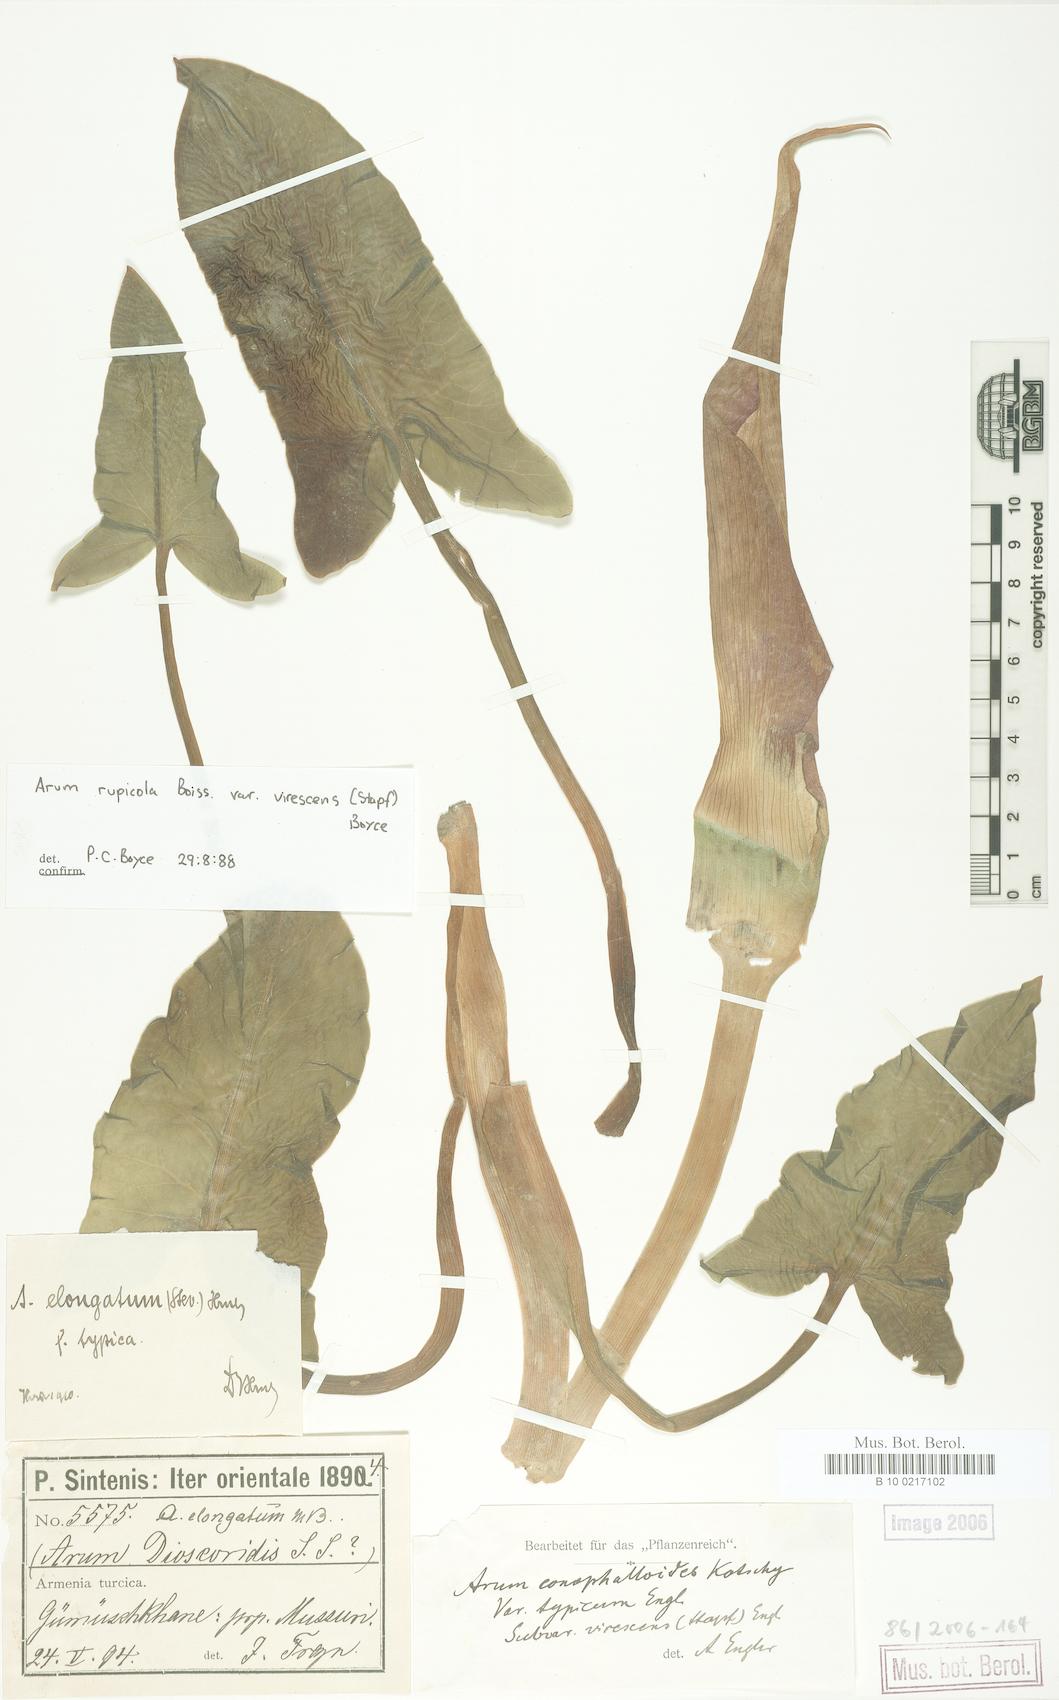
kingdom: Plantae
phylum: Tracheophyta
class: Liliopsida
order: Alismatales
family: Araceae
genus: Arum
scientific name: Arum rupicola
